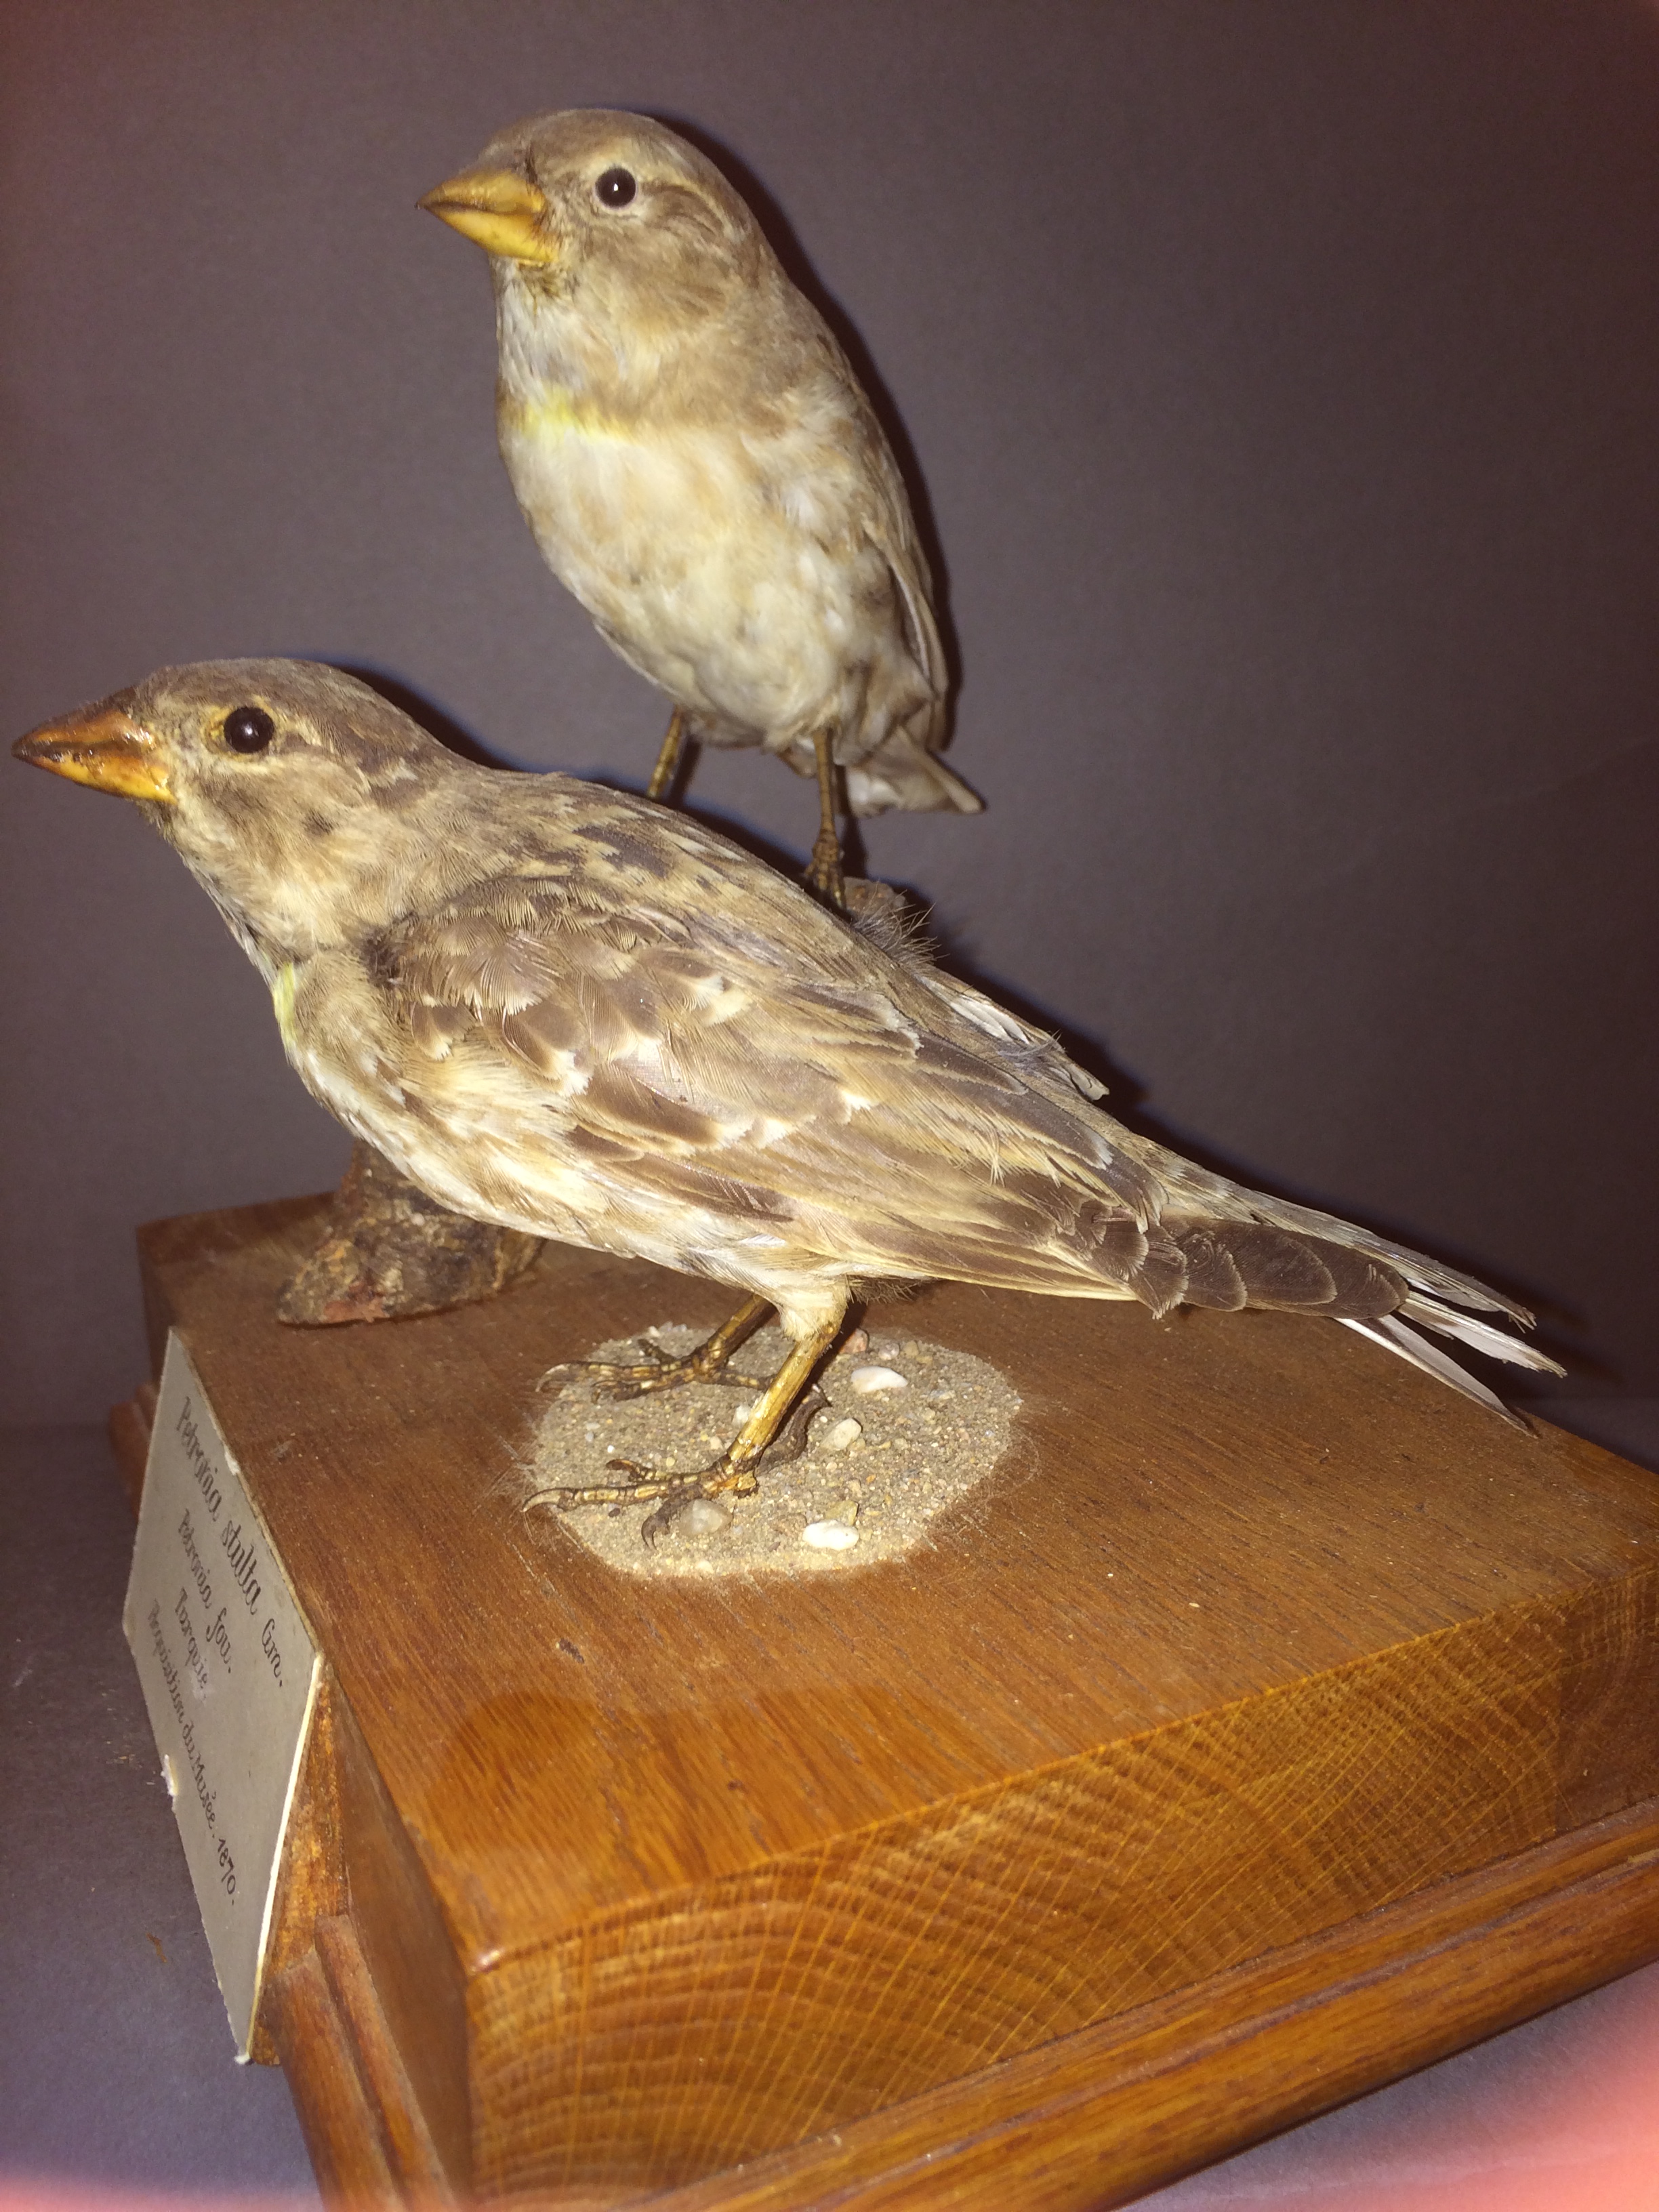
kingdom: Animalia
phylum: Chordata
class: Aves
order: Passeriformes
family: Passeridae
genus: Petronia
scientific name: Petronia petronia
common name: Rock sparrow
